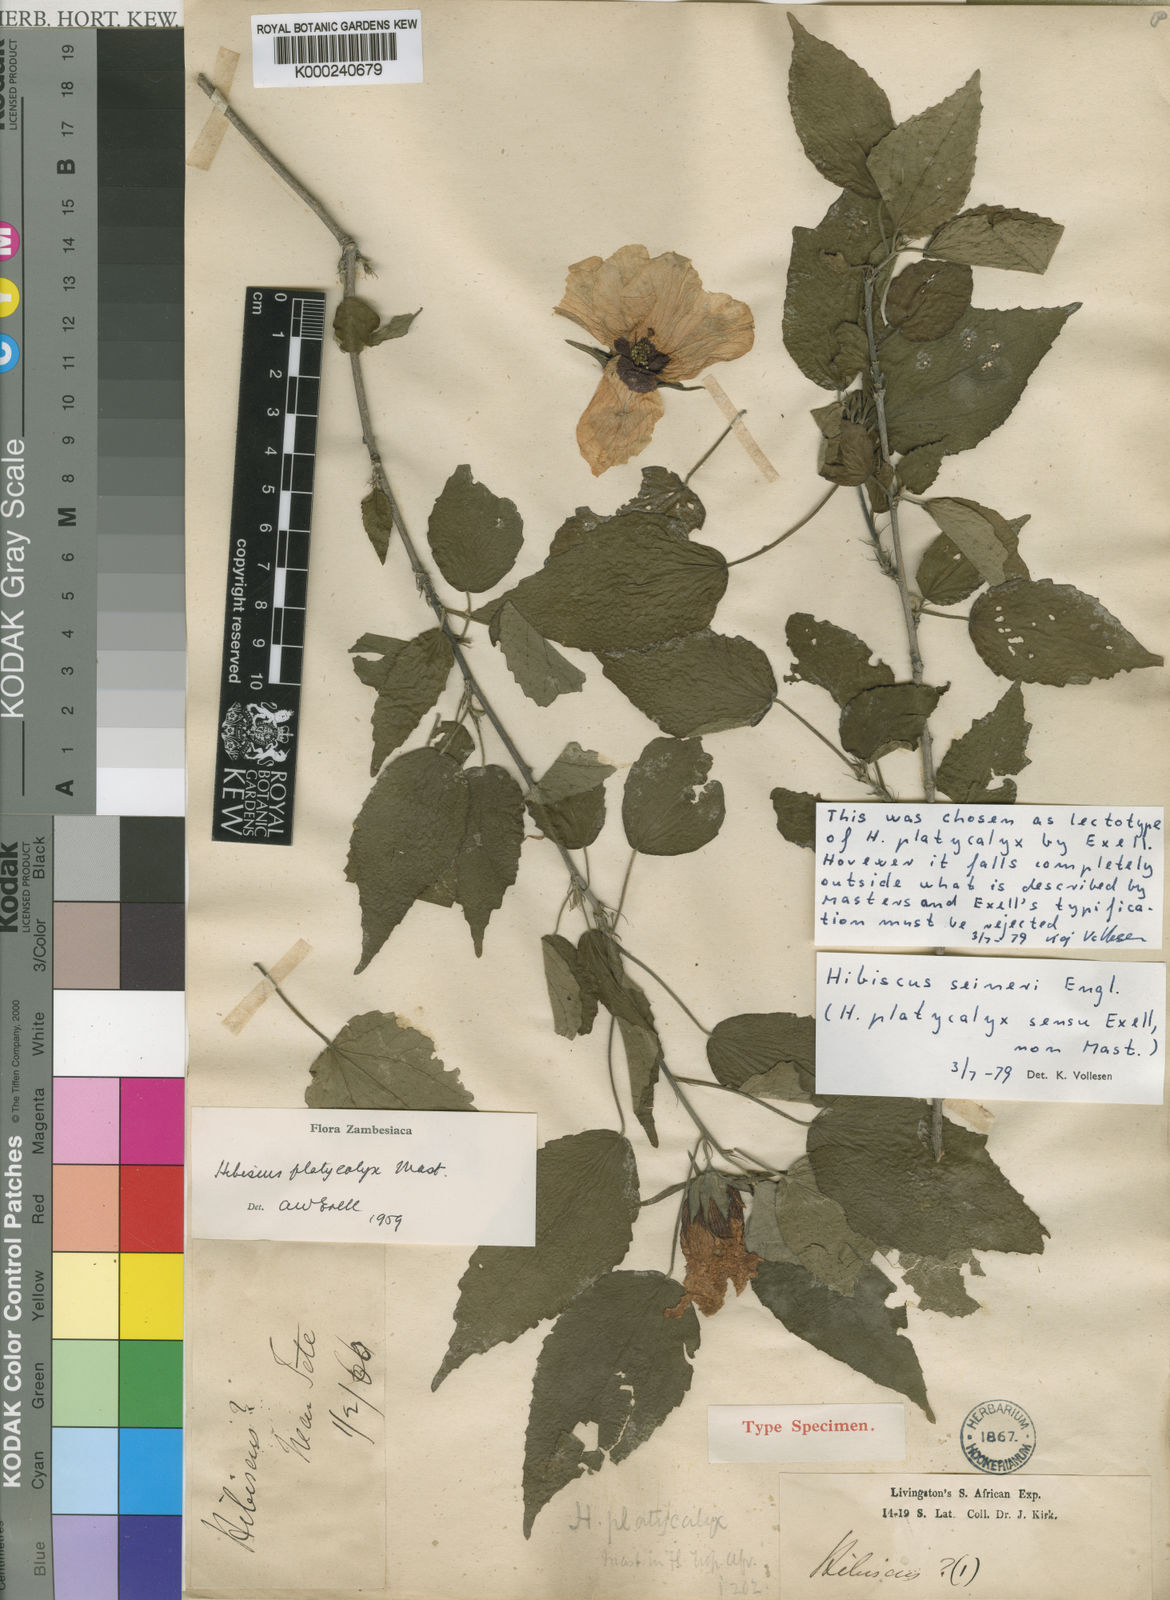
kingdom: Plantae
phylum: Tracheophyta
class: Magnoliopsida
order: Malvales
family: Malvaceae
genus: Hibiscus
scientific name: Hibiscus
